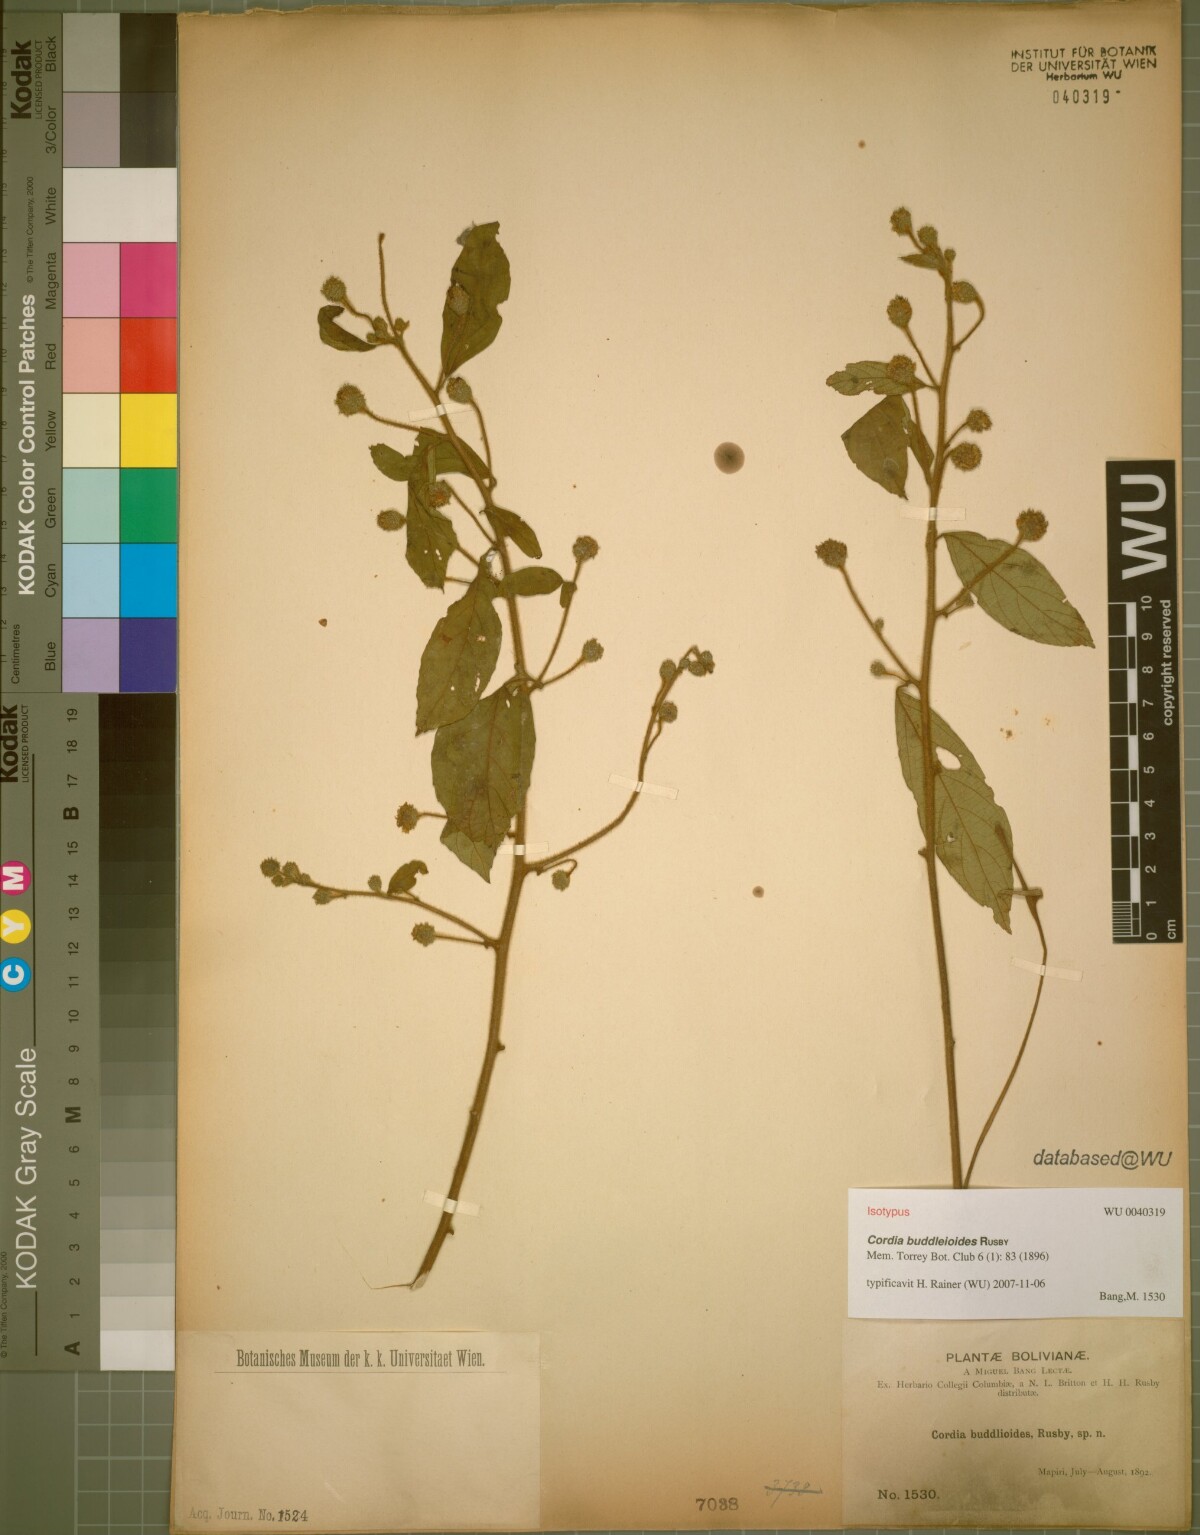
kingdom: Plantae
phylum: Tracheophyta
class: Magnoliopsida
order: Boraginales
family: Cordiaceae
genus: Varronia
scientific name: Varronia buddleoides
